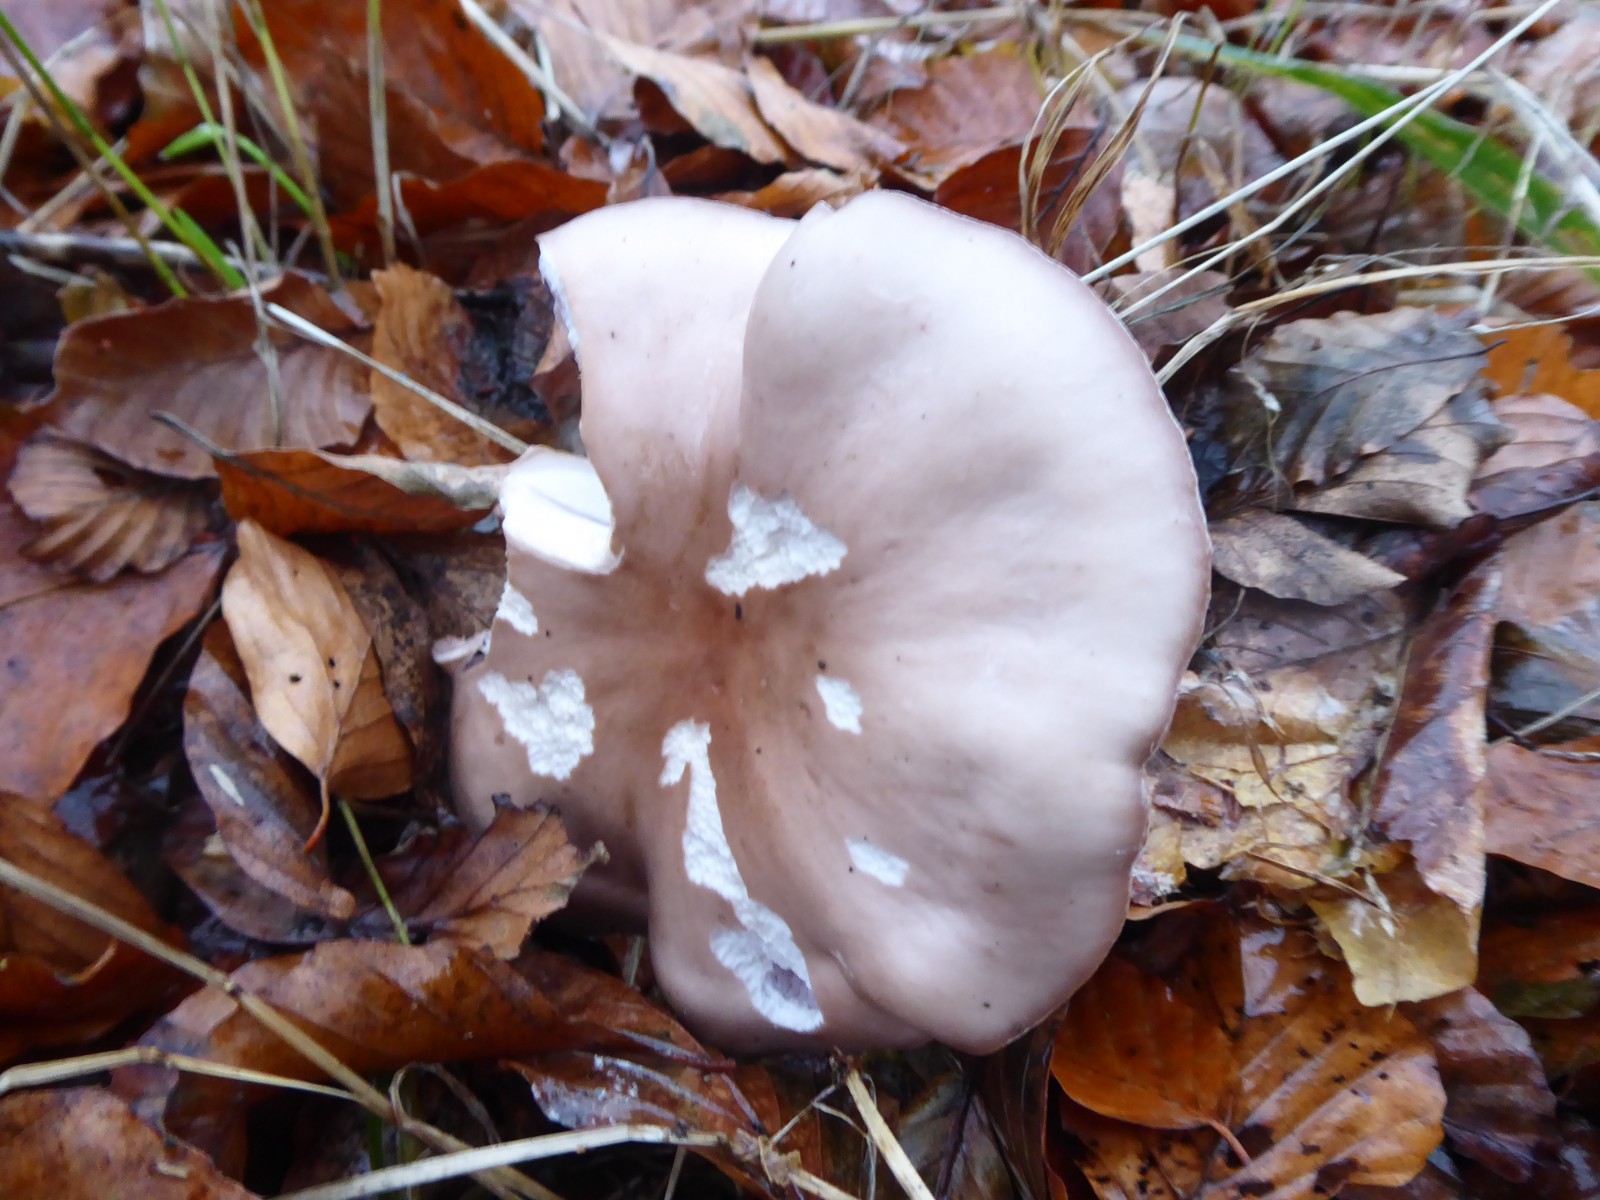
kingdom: Fungi
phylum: Basidiomycota
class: Agaricomycetes
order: Agaricales
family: Tricholomataceae
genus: Lepista
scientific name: Lepista nuda
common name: violet hekseringshat
